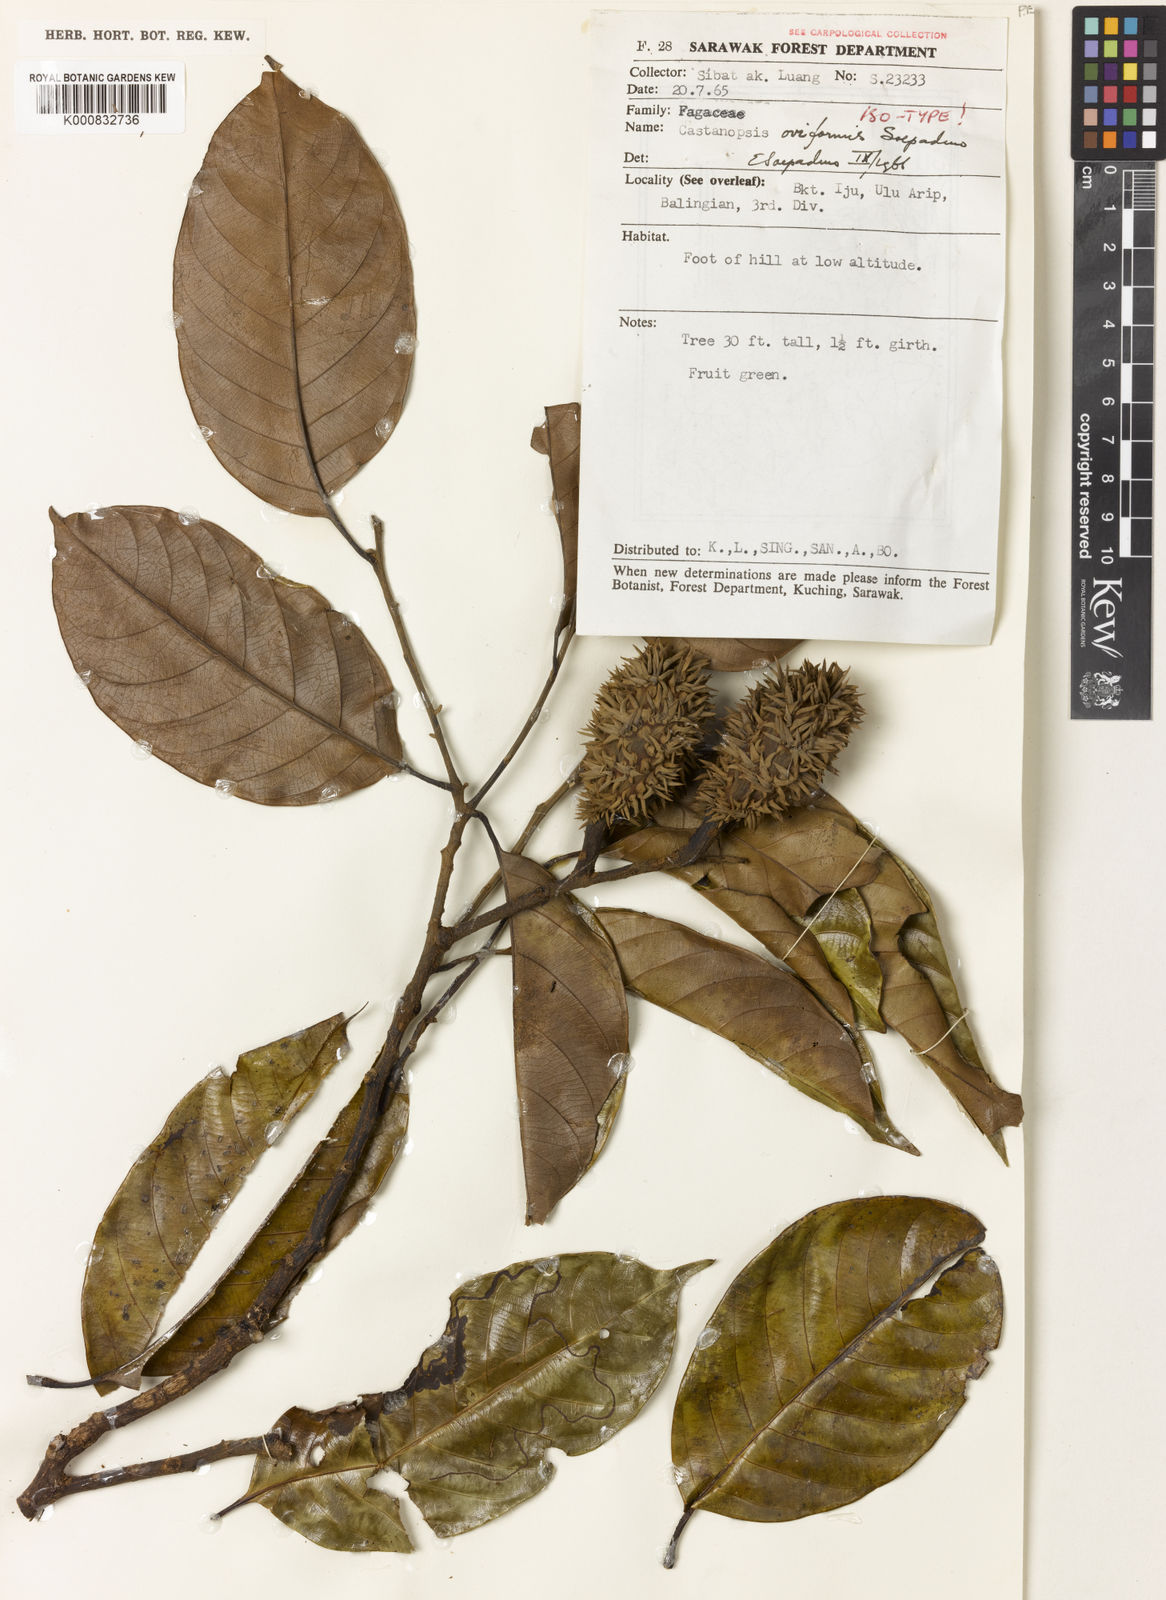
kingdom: Plantae
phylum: Tracheophyta
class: Magnoliopsida
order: Fagales
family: Fagaceae
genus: Castanopsis
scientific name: Castanopsis oviformis
